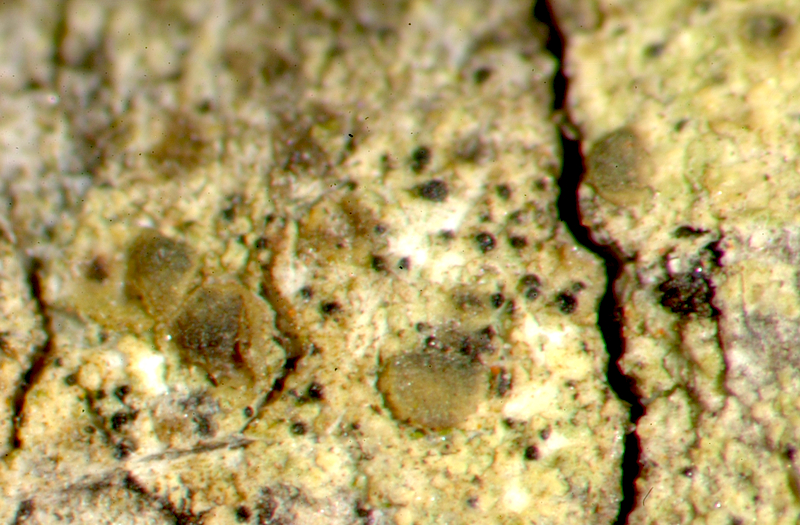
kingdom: Fungi
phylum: Ascomycota
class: Lecanoromycetes
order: Teloschistales
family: Teloschistaceae
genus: Caloplaca
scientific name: Caloplaca
